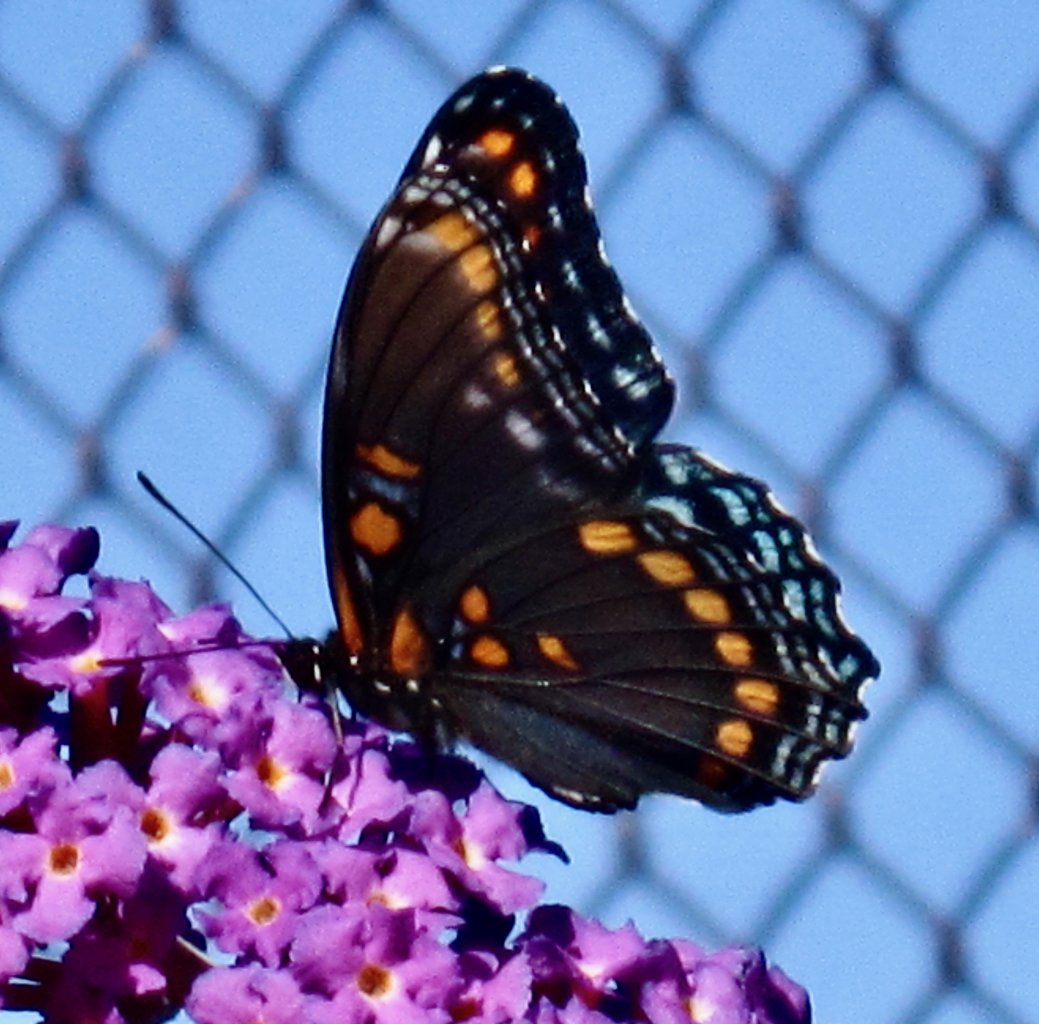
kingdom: Animalia
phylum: Arthropoda
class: Insecta
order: Lepidoptera
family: Nymphalidae
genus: Limenitis
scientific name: Limenitis astyanax
